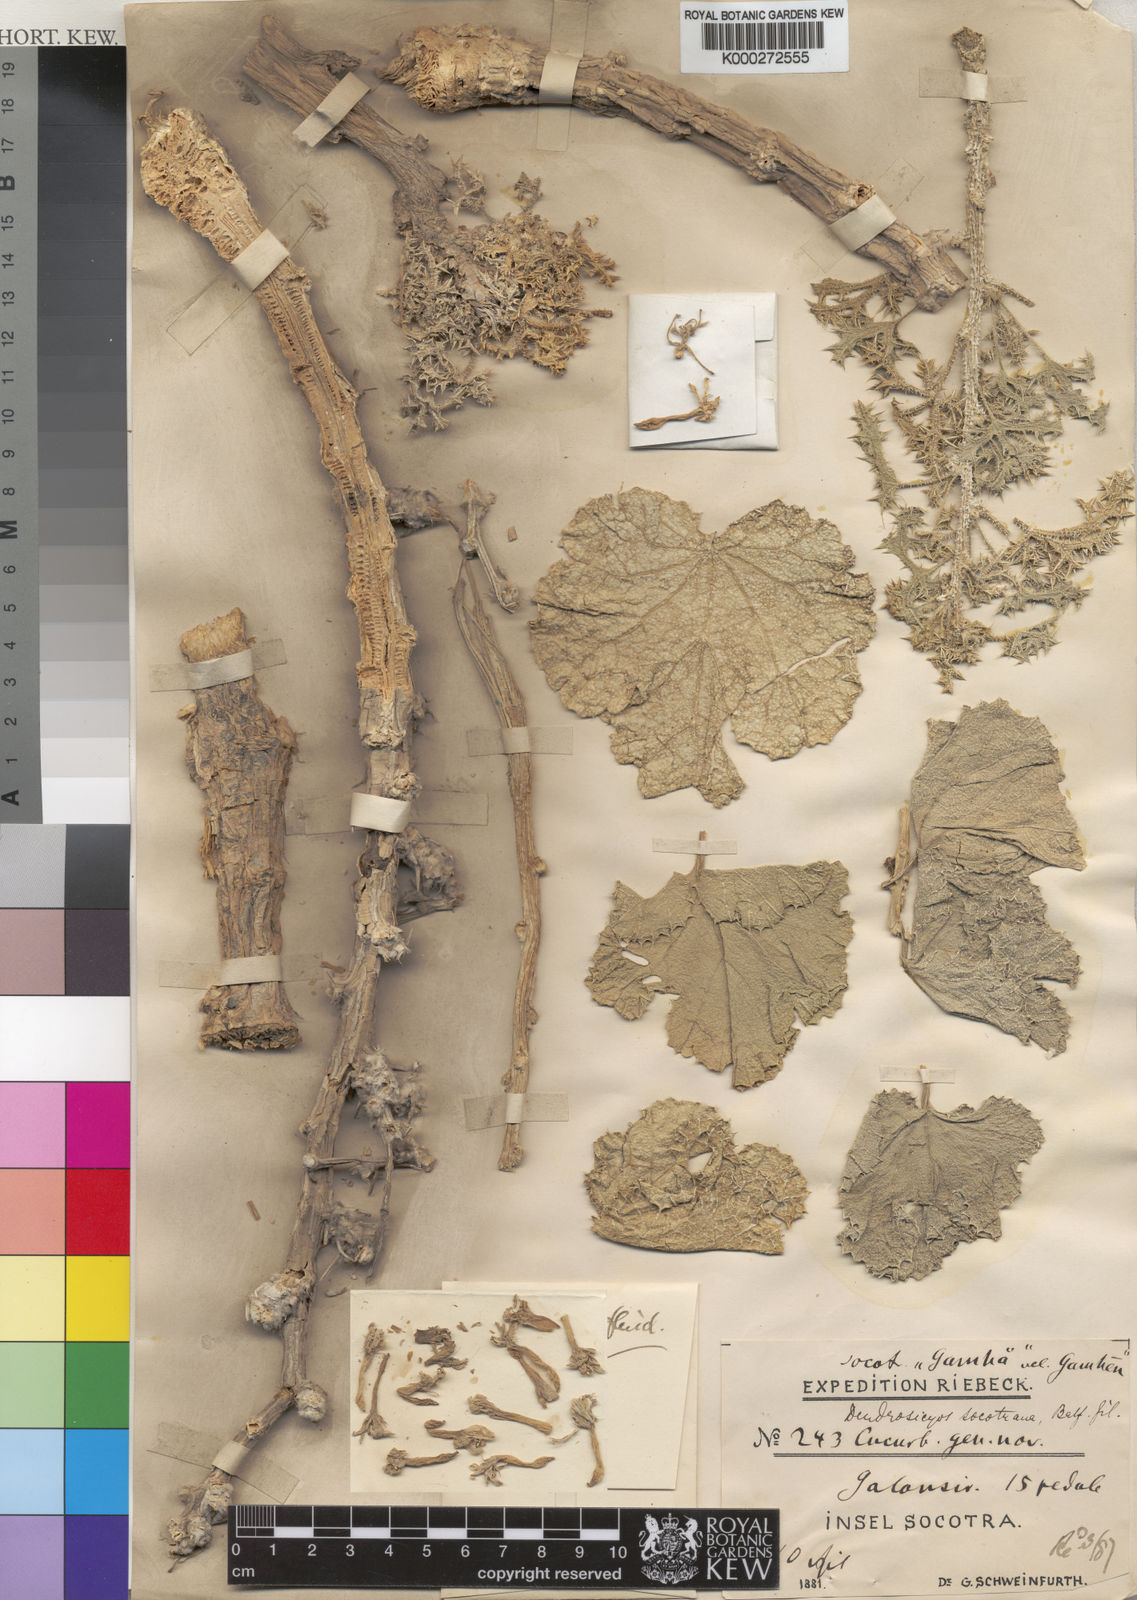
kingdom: Plantae
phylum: Tracheophyta
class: Magnoliopsida
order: Cucurbitales
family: Cucurbitaceae
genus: Dendrosicyos
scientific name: Dendrosicyos
